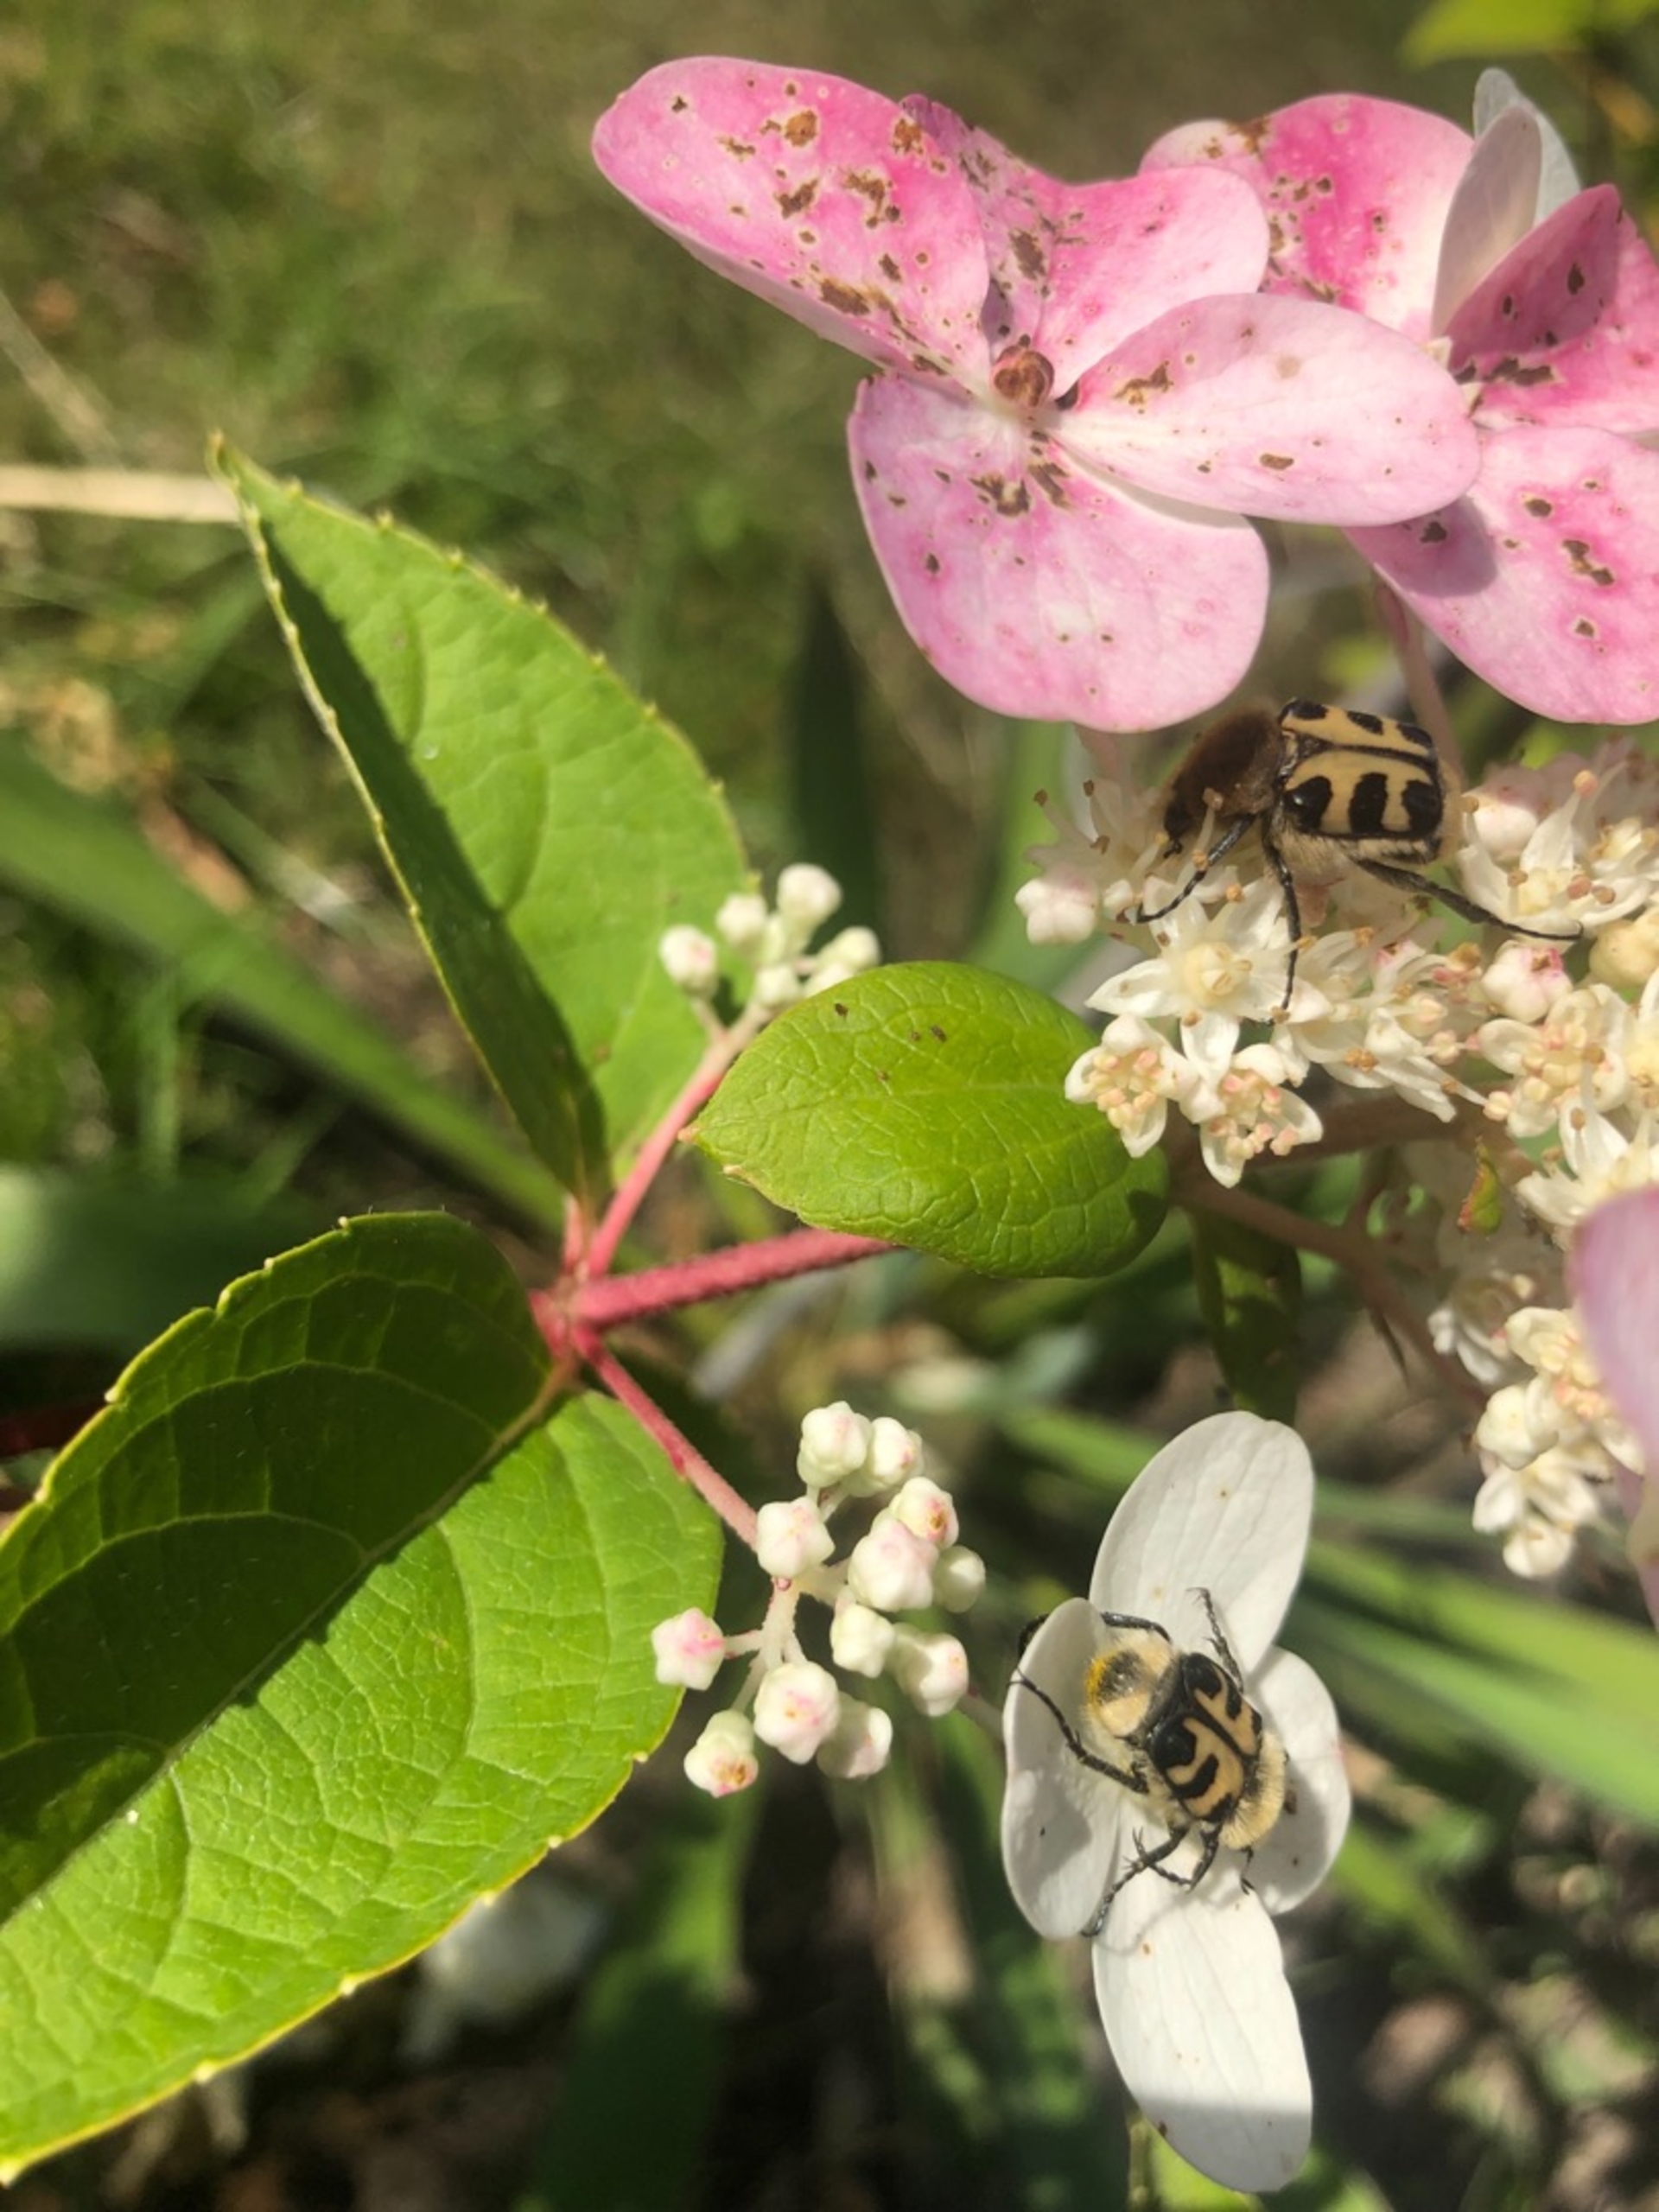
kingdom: Animalia
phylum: Arthropoda
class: Insecta
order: Coleoptera
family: Scarabaeidae
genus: Trichius
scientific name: Trichius gallicus
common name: Lille humlebille
